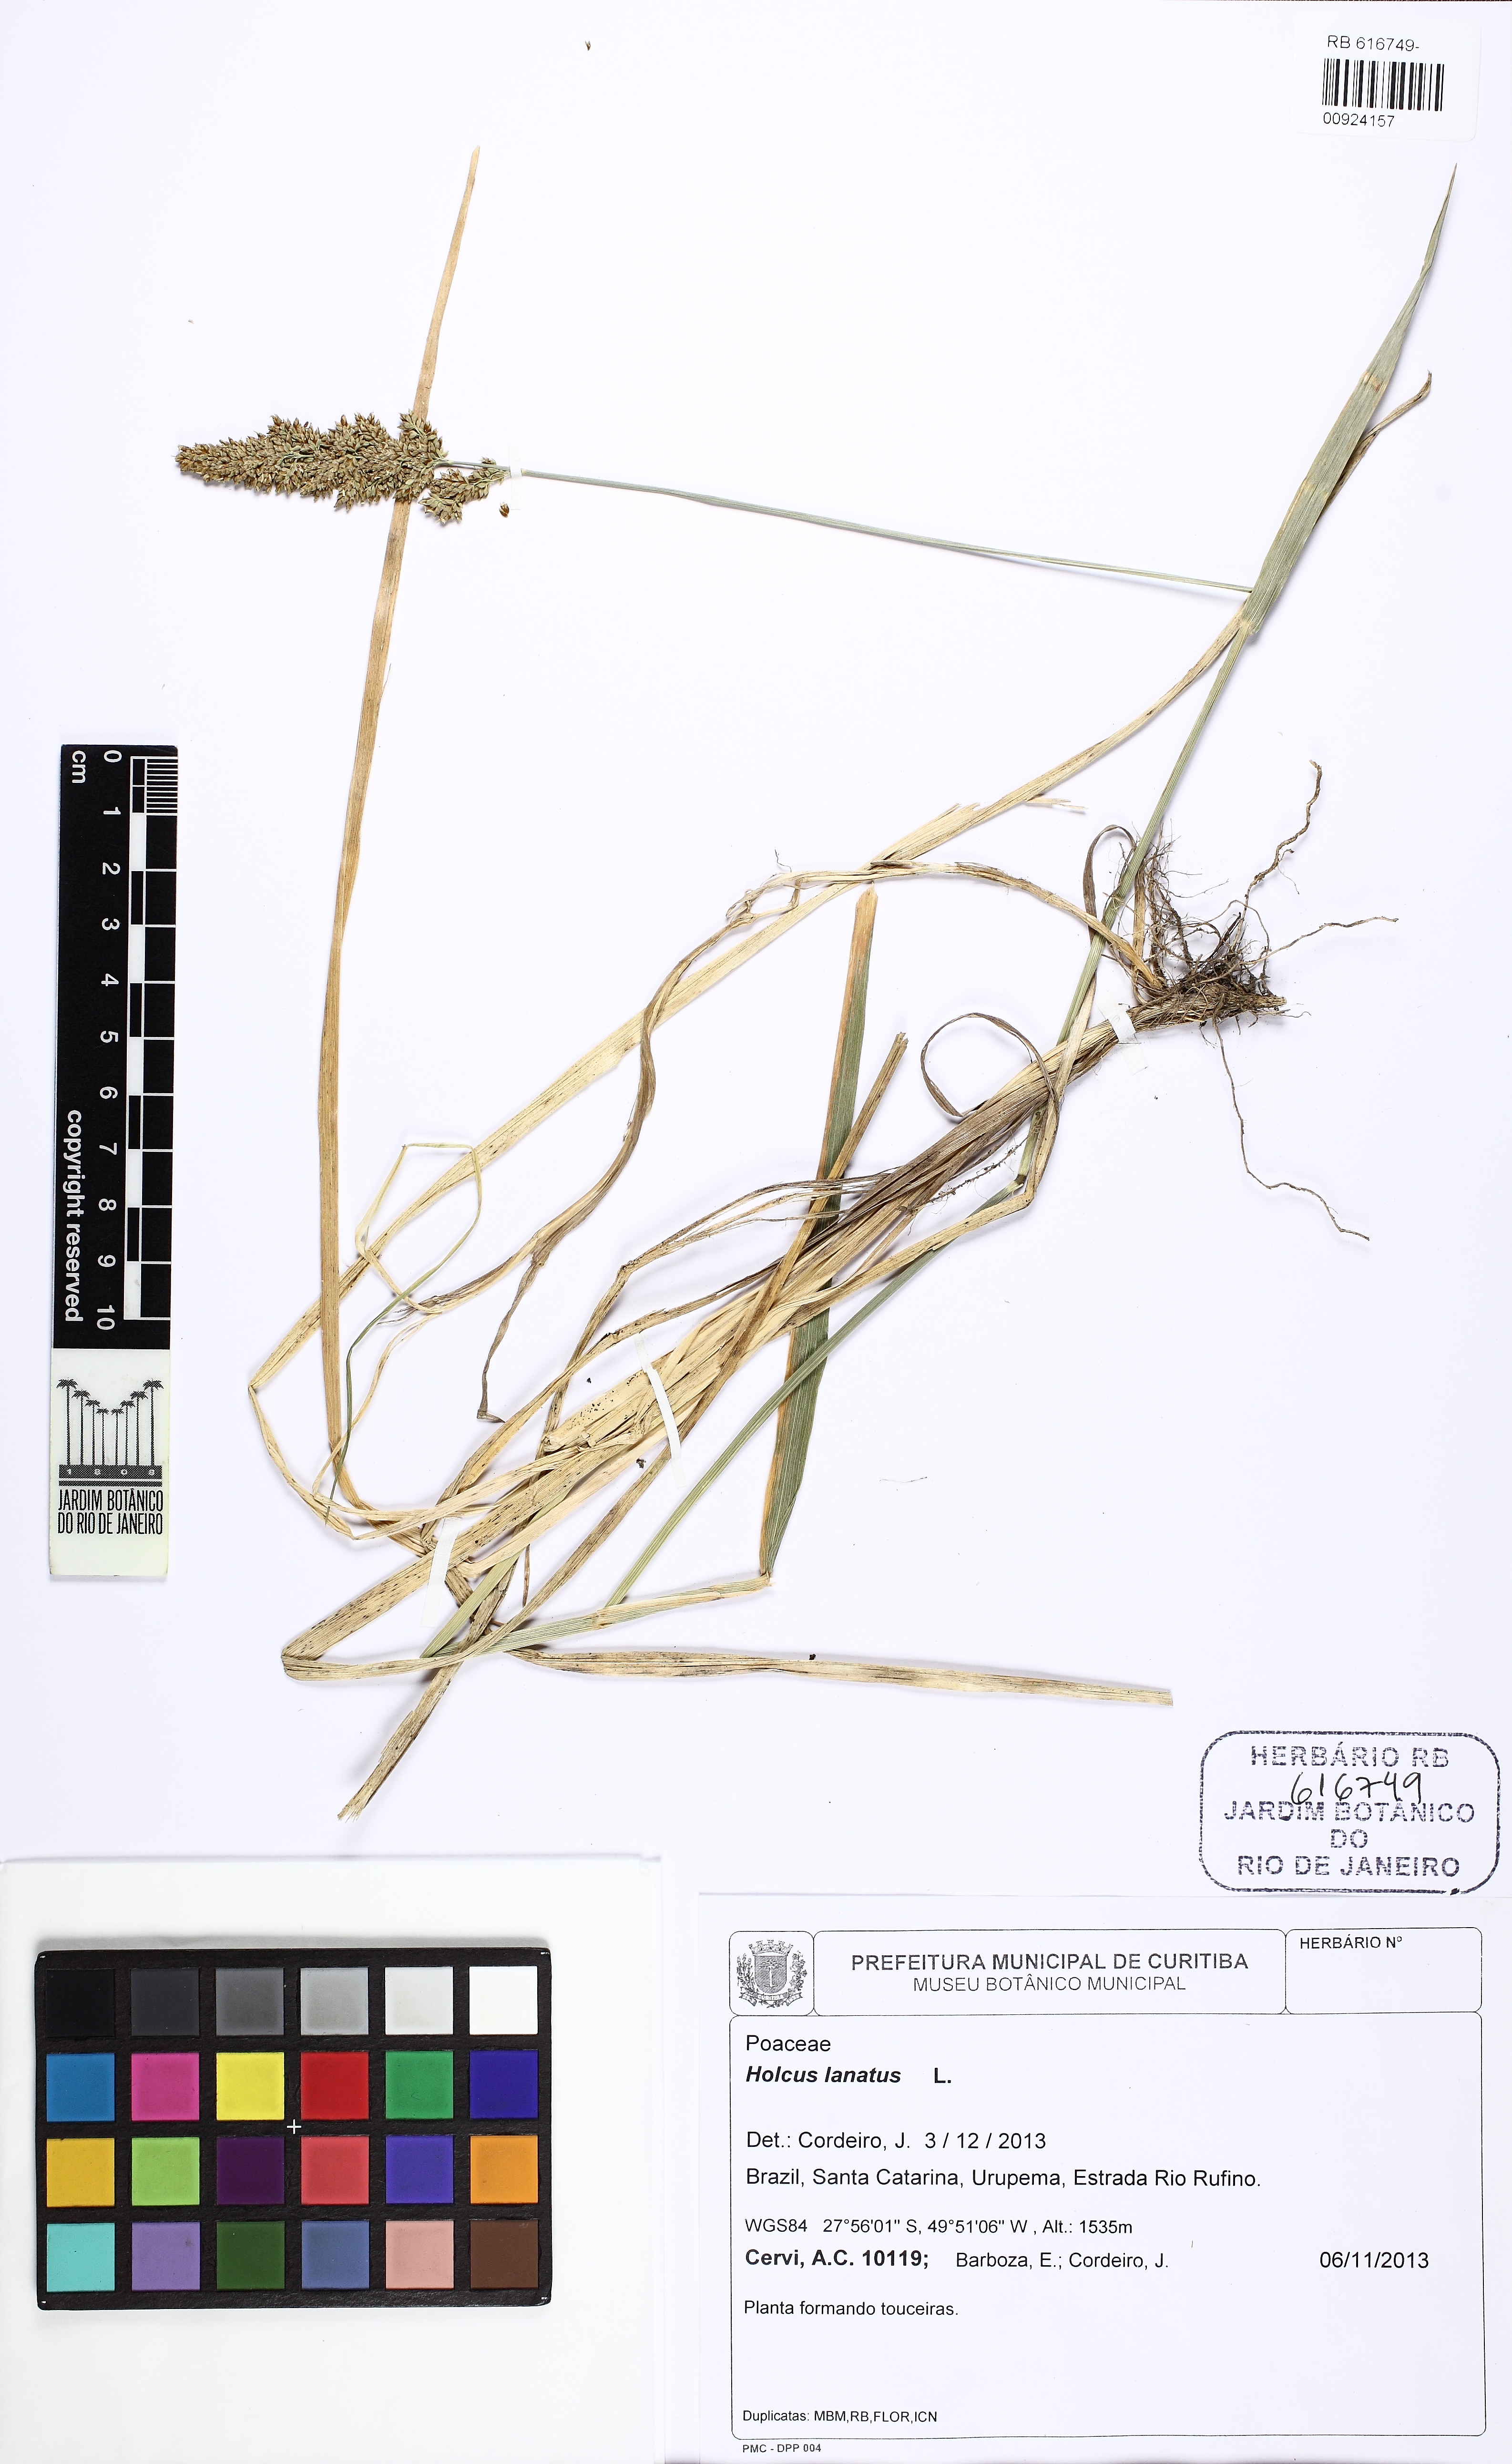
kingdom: Plantae
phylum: Tracheophyta
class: Liliopsida
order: Poales
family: Poaceae
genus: Holcus
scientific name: Holcus lanatus
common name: Yorkshire-fog
